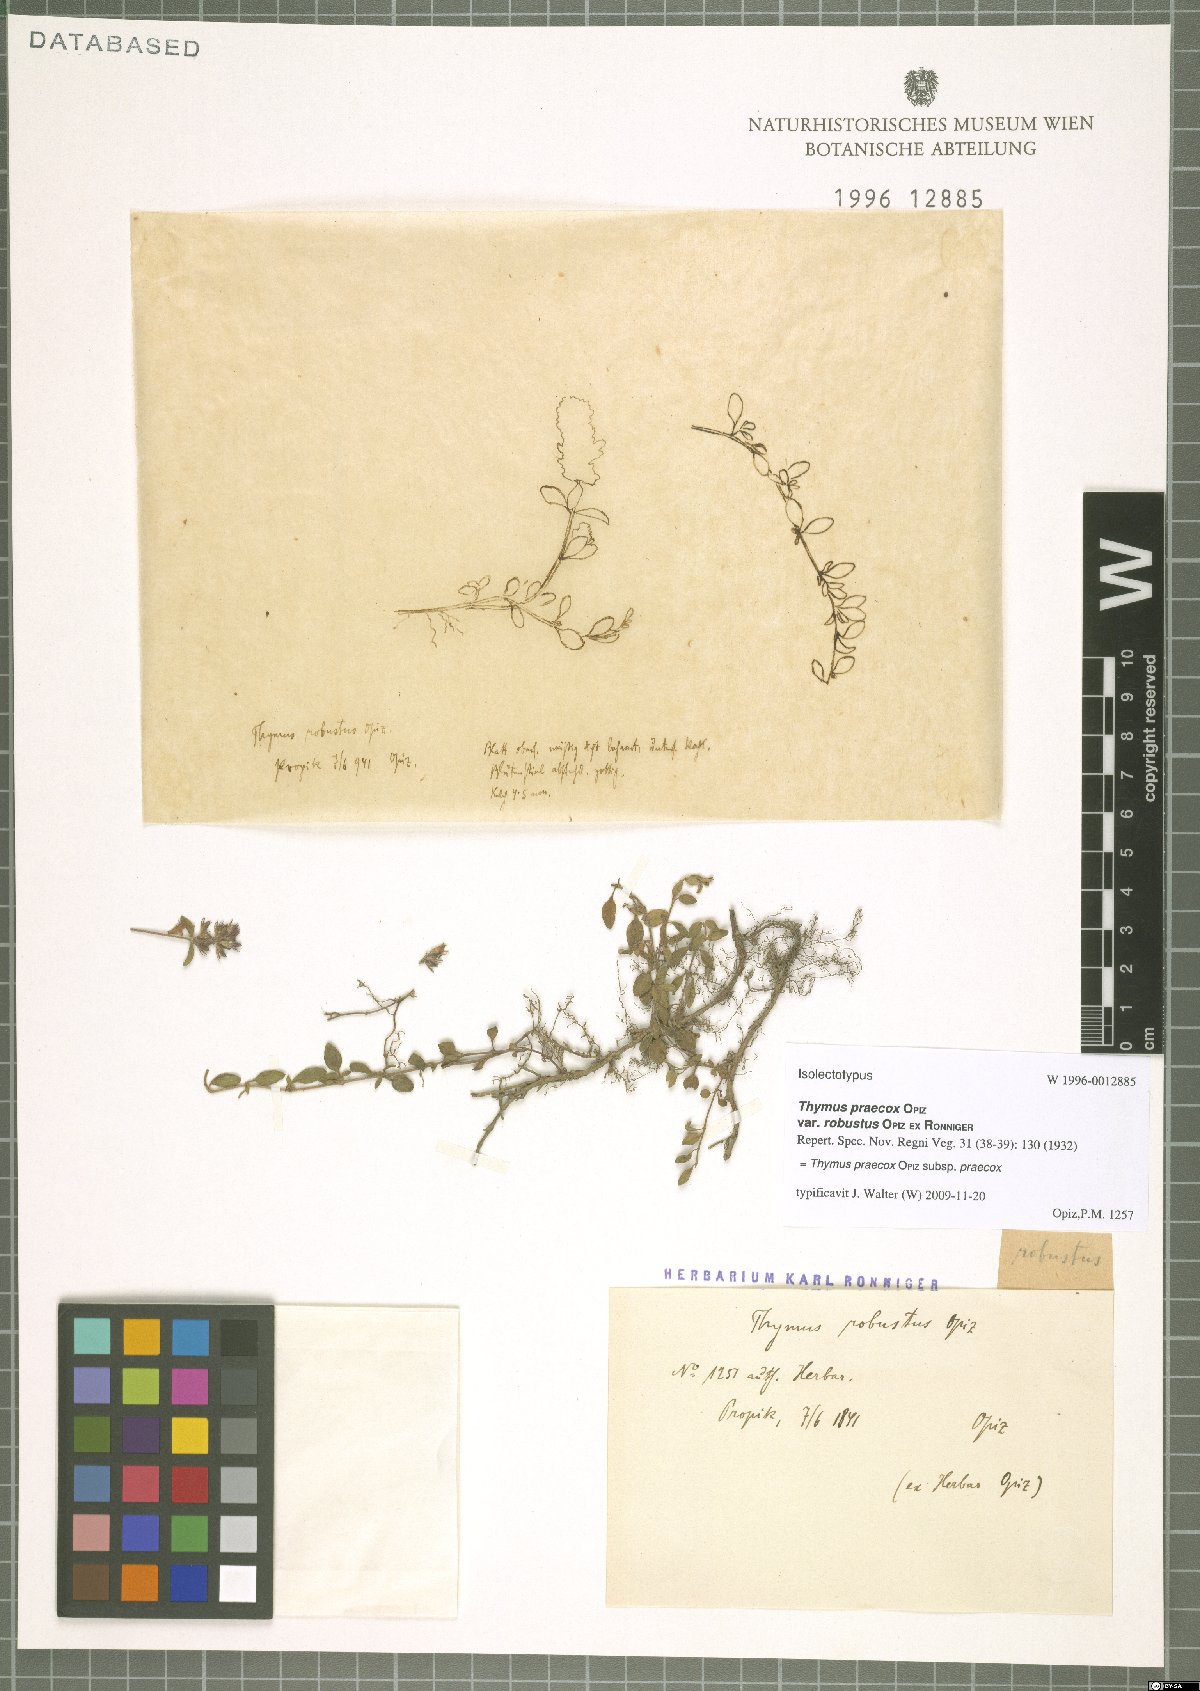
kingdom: Plantae
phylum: Tracheophyta
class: Magnoliopsida
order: Lamiales
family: Lamiaceae
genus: Thymus
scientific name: Thymus praecox
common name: Wild thyme
